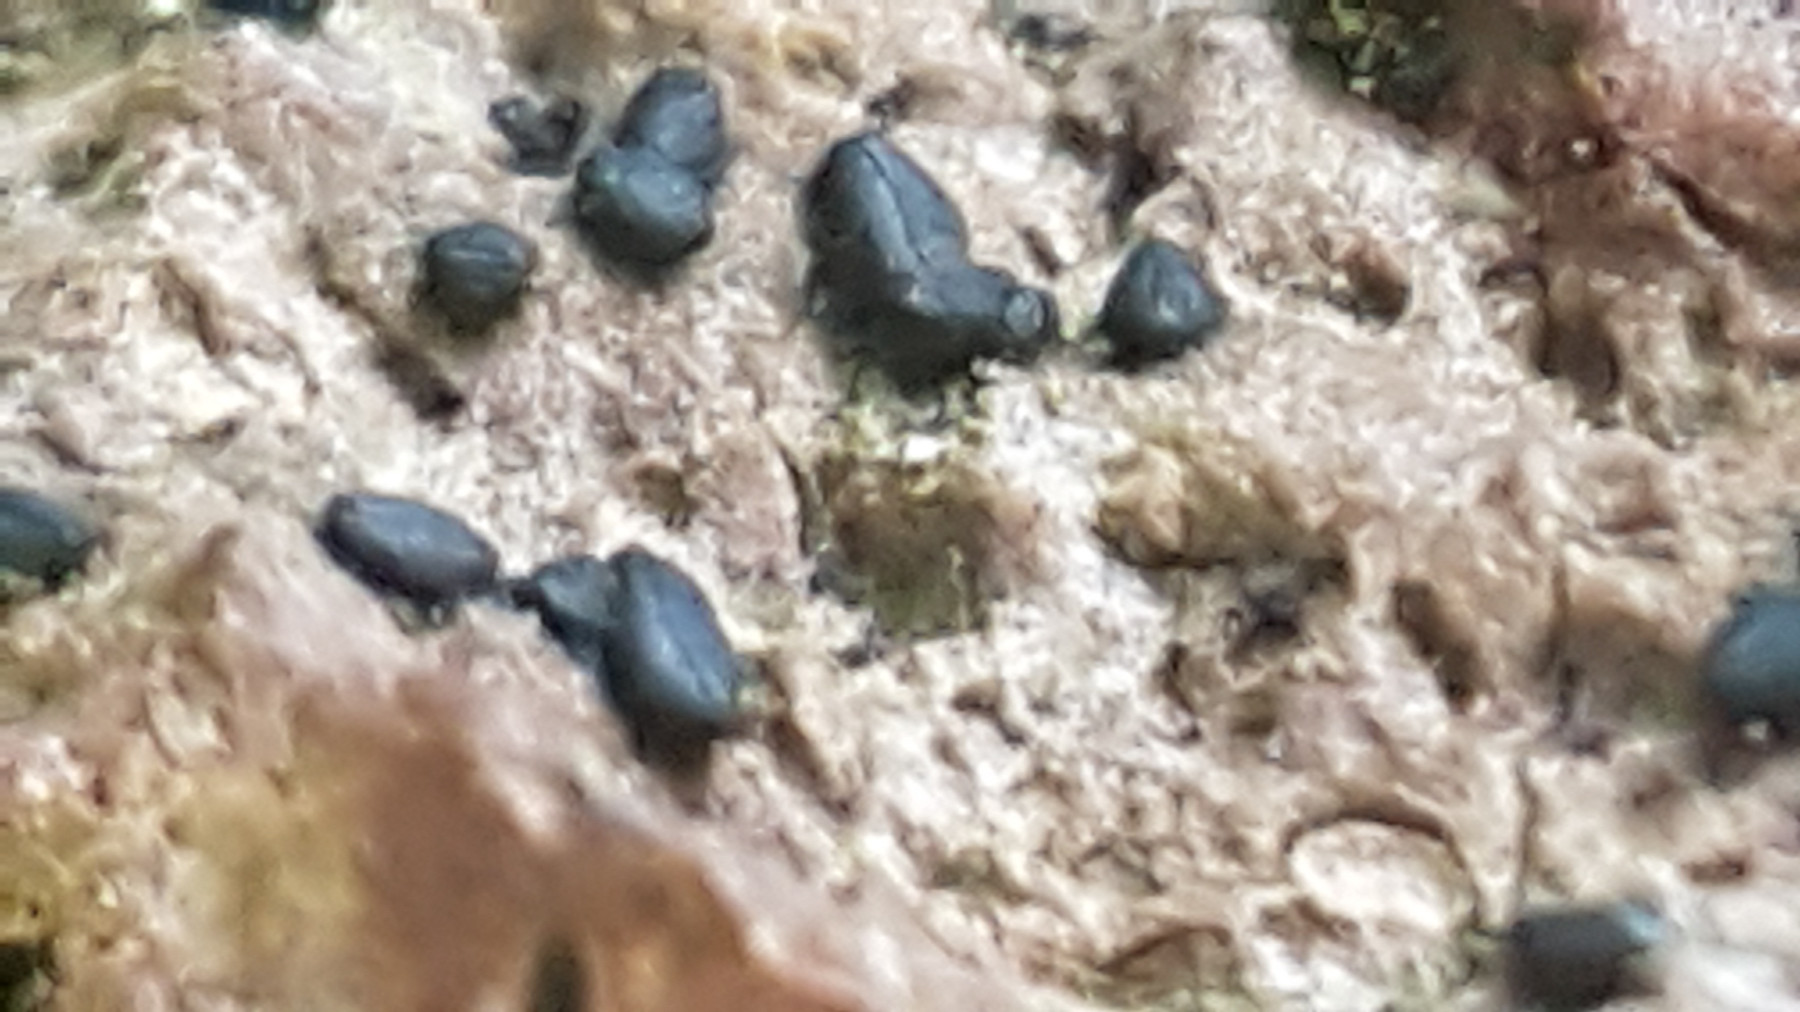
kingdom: Fungi
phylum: Ascomycota
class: Dothideomycetes
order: Hysteriales
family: Hysteriaceae
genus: Hysterium
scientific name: Hysterium
